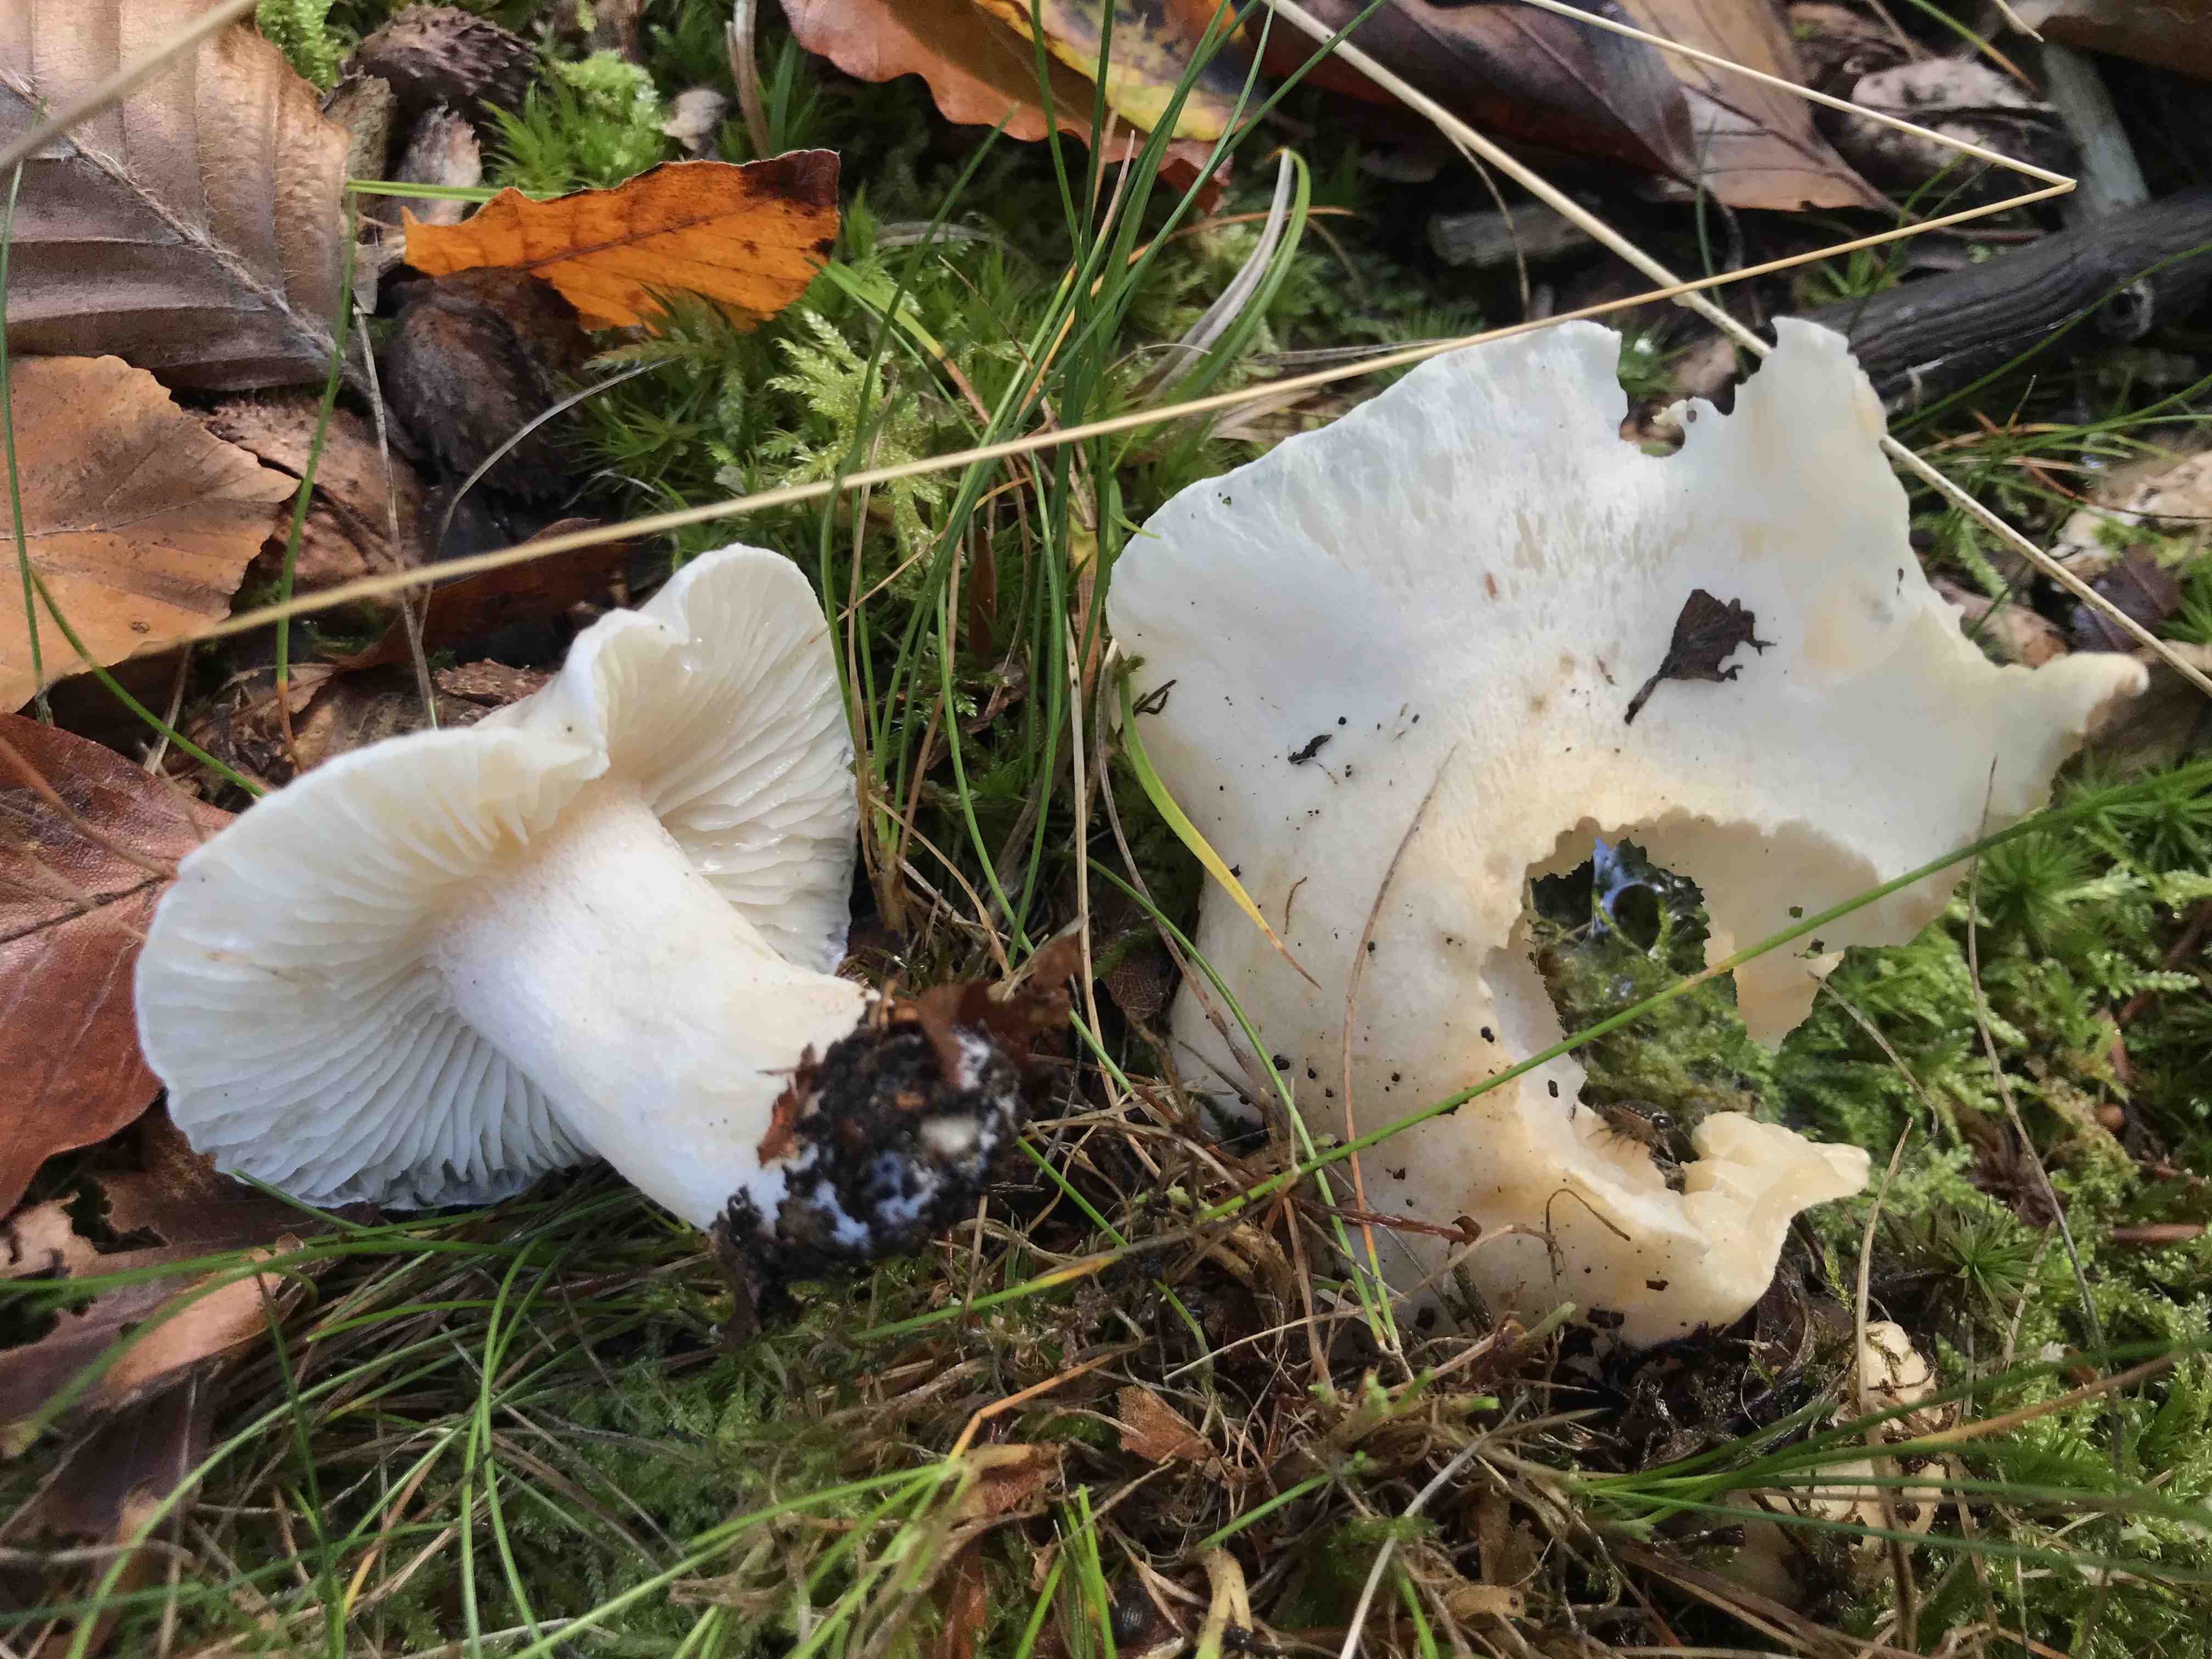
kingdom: Fungi
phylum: Basidiomycota
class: Agaricomycetes
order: Agaricales
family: Hygrophoraceae
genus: Hygrophorus
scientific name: Hygrophorus penarius
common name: spiselig sneglehat
